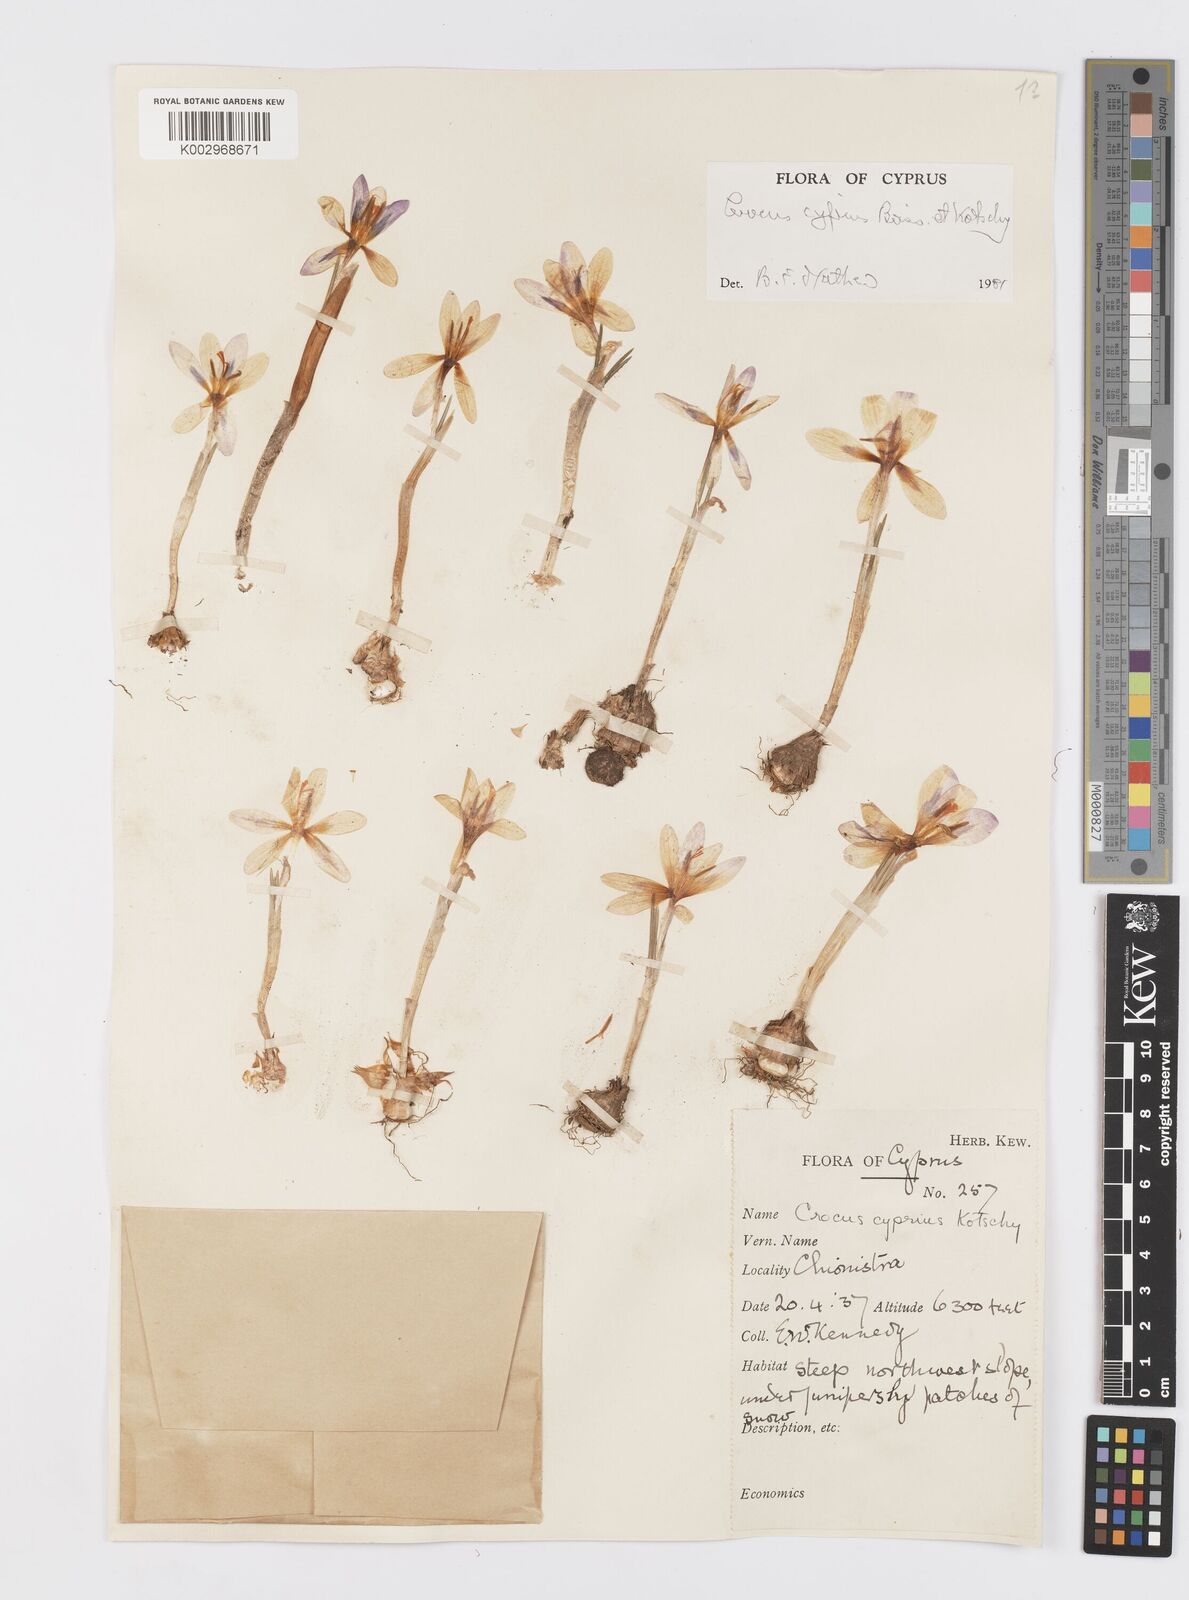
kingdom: Plantae
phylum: Tracheophyta
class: Liliopsida
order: Asparagales
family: Iridaceae
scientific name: Iridaceae
